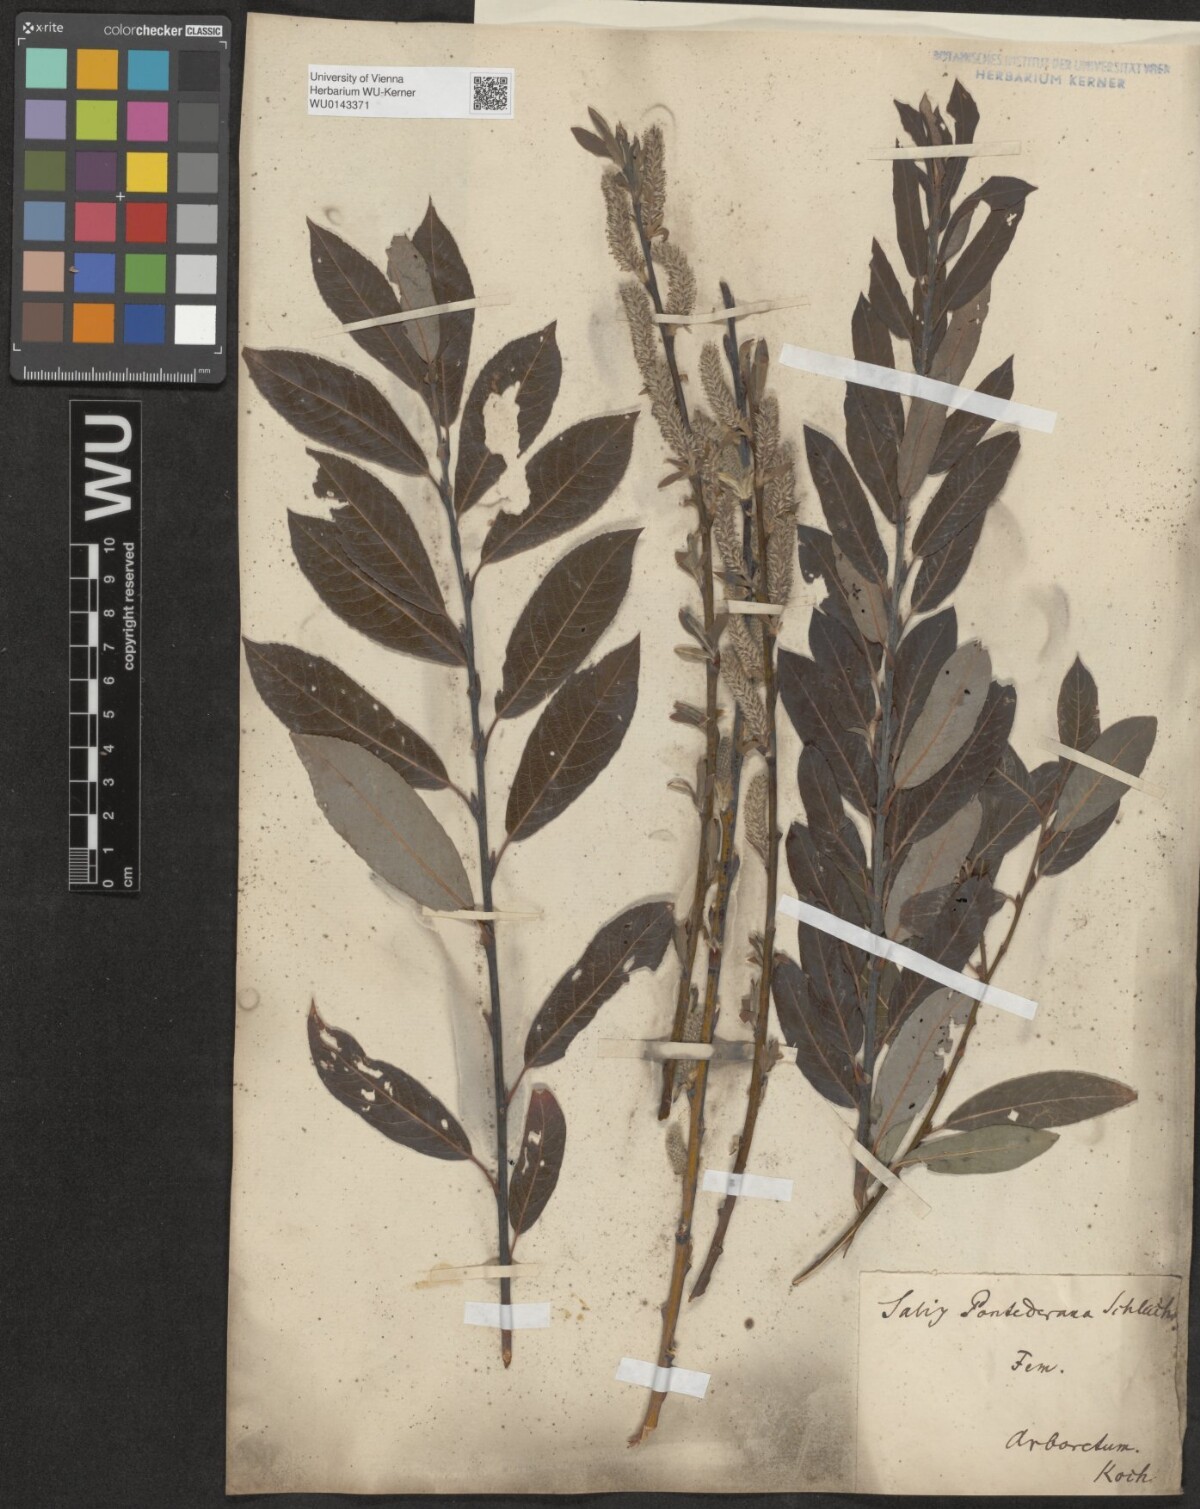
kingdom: Plantae
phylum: Tracheophyta
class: Magnoliopsida
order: Malpighiales
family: Salicaceae
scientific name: Salicaceae
